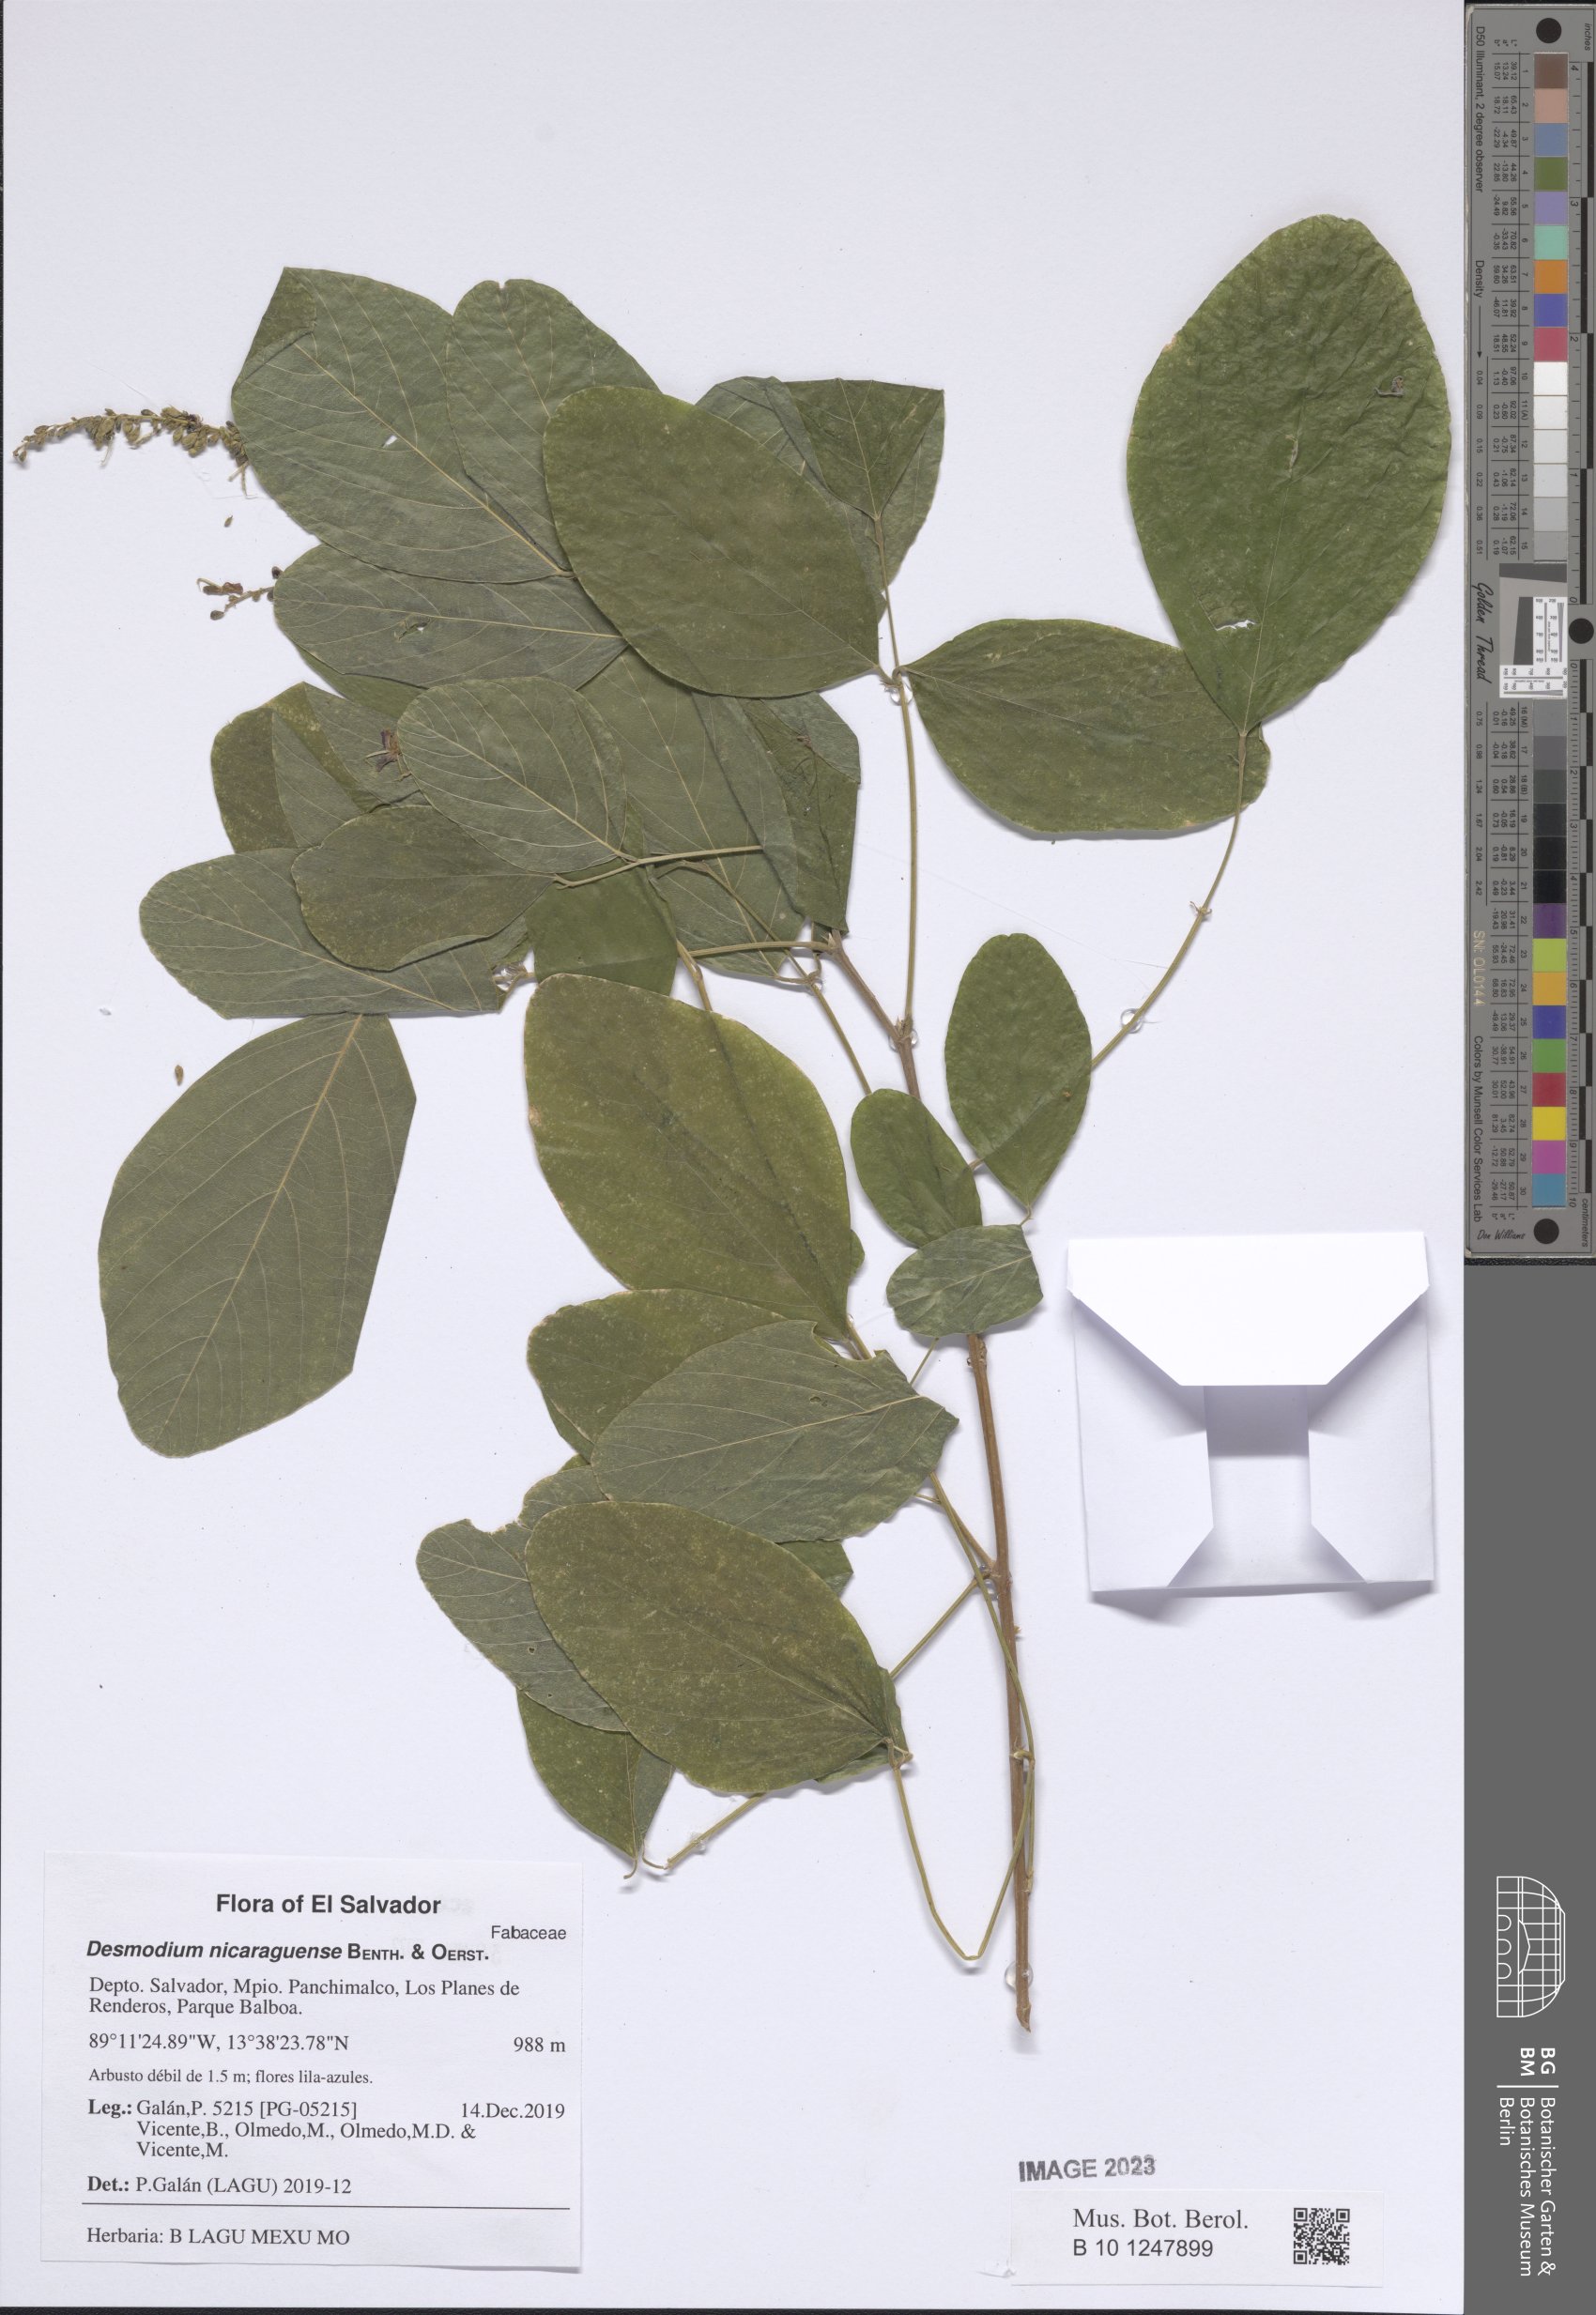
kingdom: Plantae
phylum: Tracheophyta
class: Magnoliopsida
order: Fabales
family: Fabaceae
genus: Desmodium
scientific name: Desmodium nicaraguense
